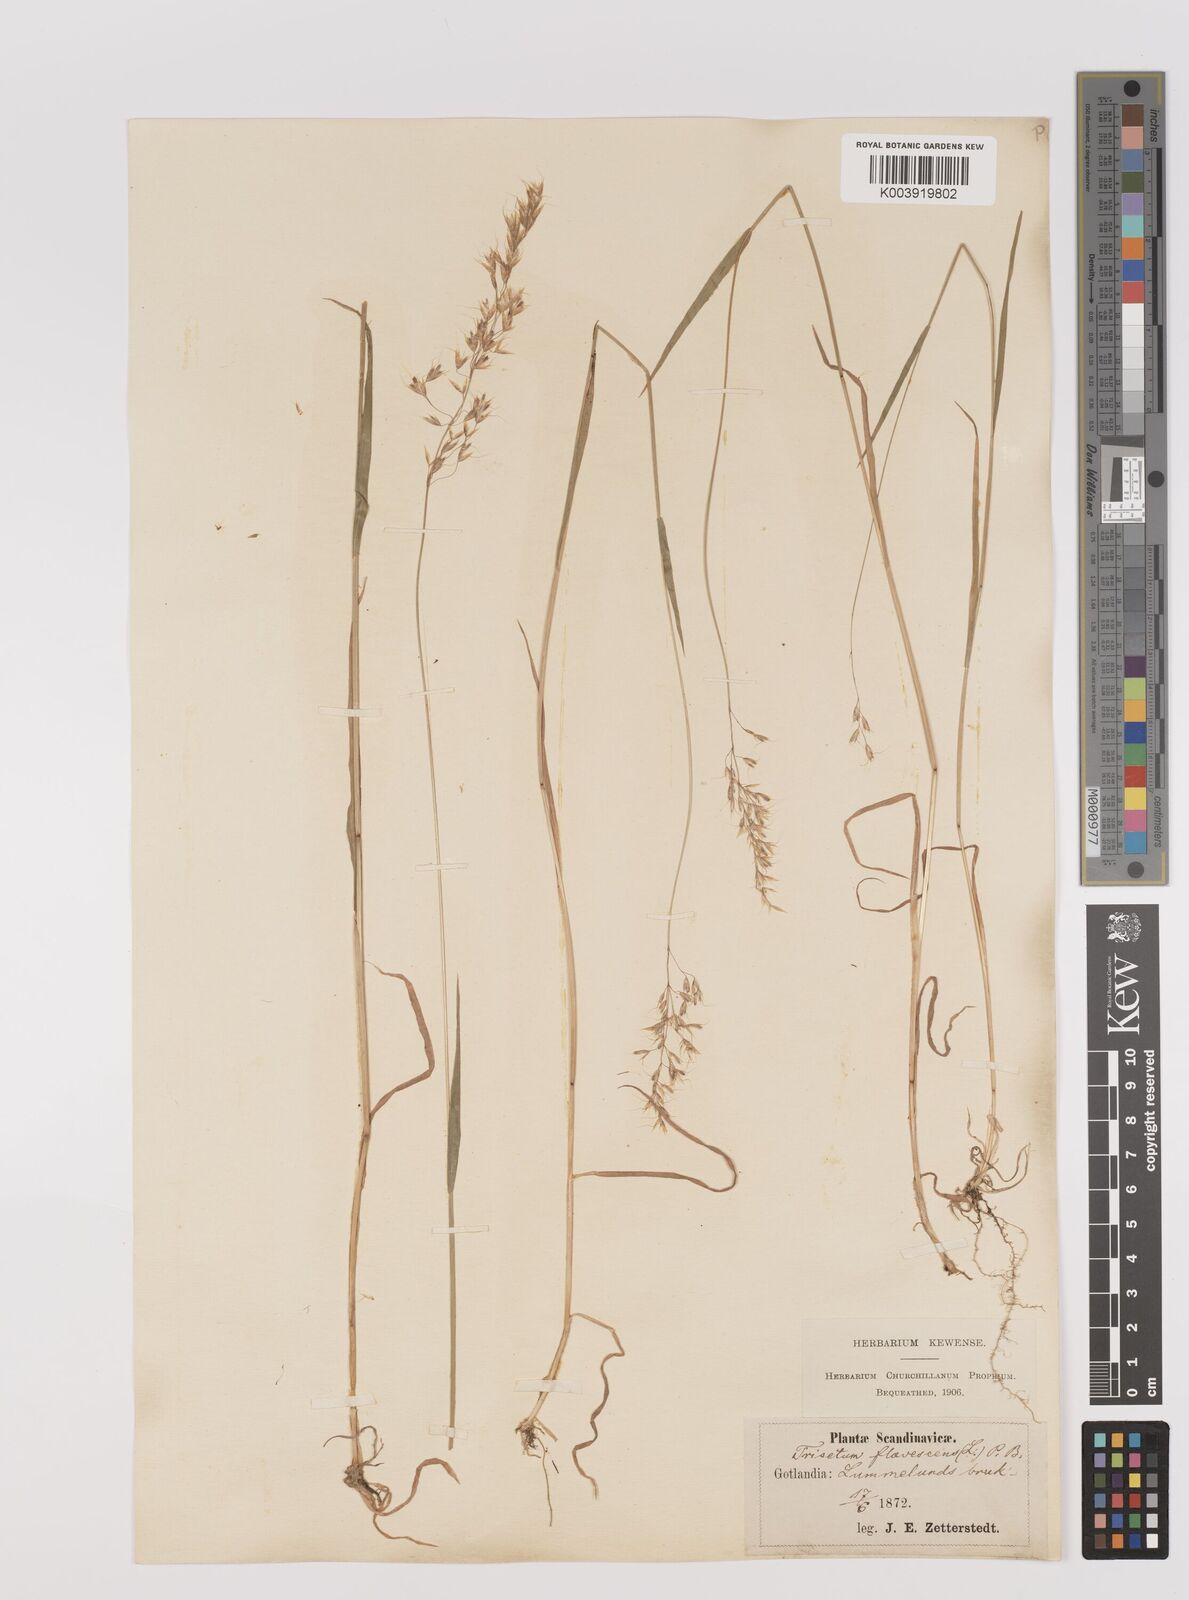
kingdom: Plantae
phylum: Tracheophyta
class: Liliopsida
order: Poales
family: Poaceae
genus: Trisetum
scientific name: Trisetum flavescens
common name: Yellow oat-grass
